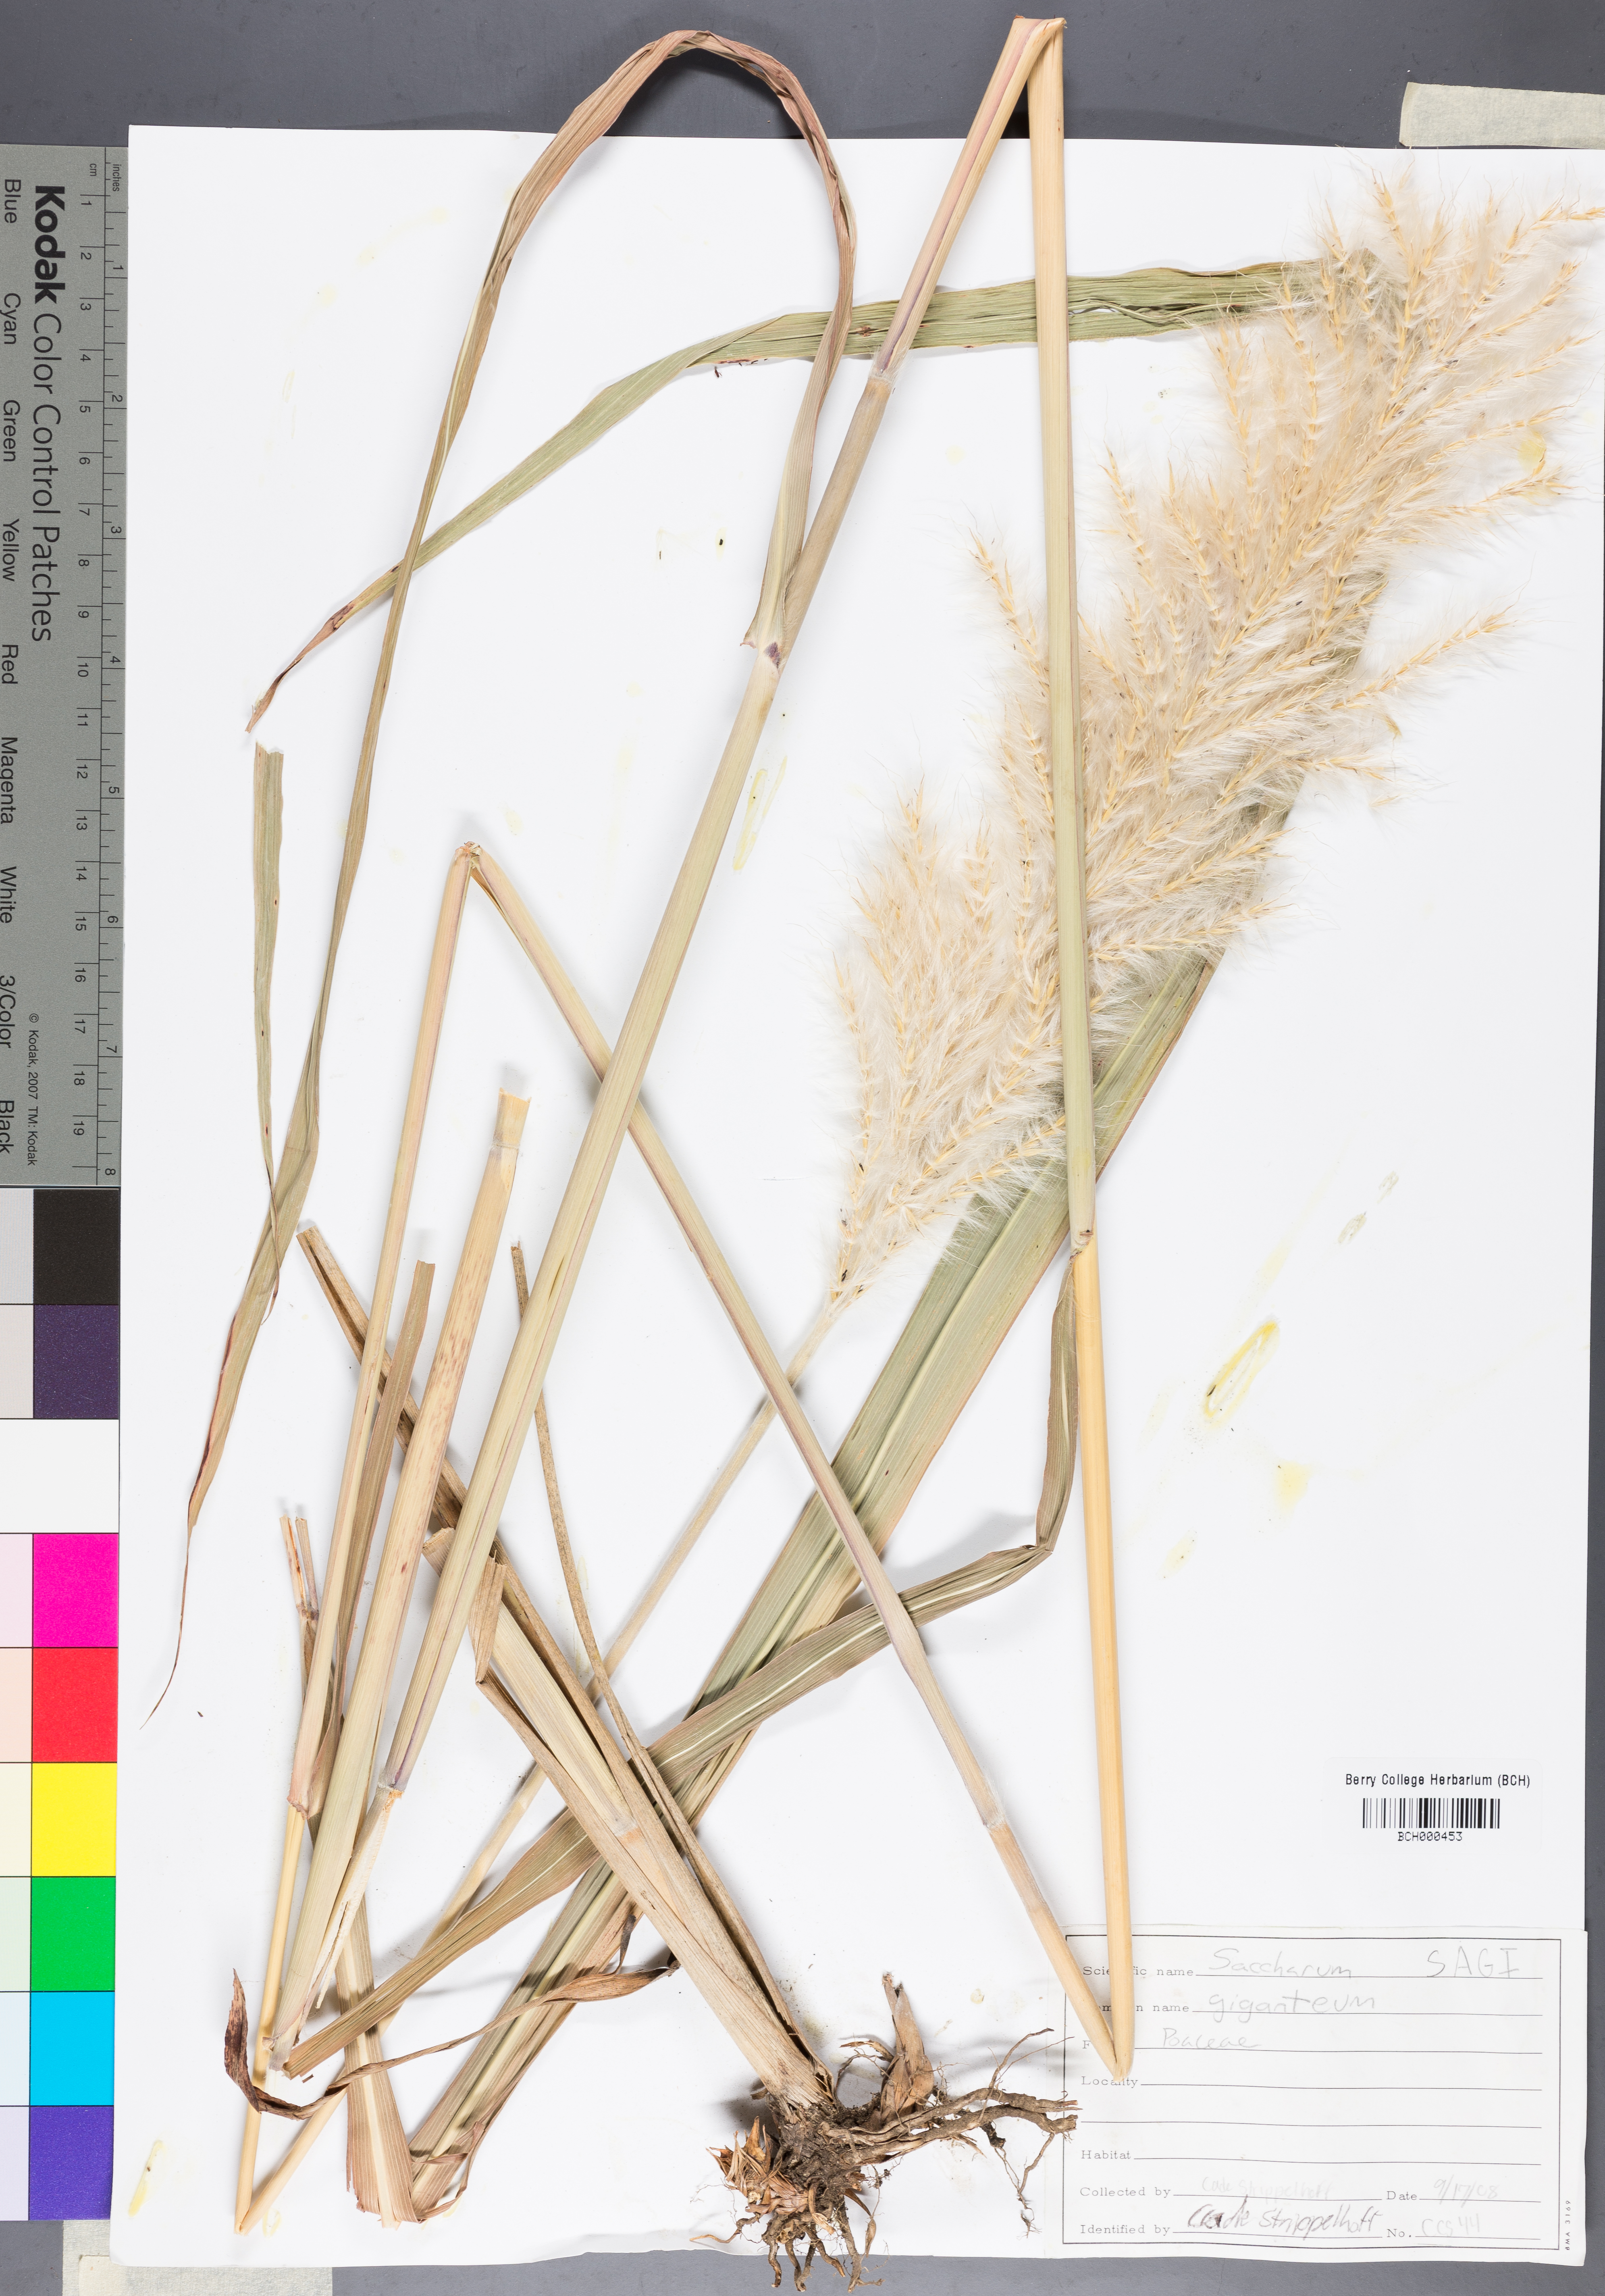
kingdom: Plantae
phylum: Tracheophyta
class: Liliopsida
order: Poales
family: Poaceae
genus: Erianthus
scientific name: Erianthus giganteus
